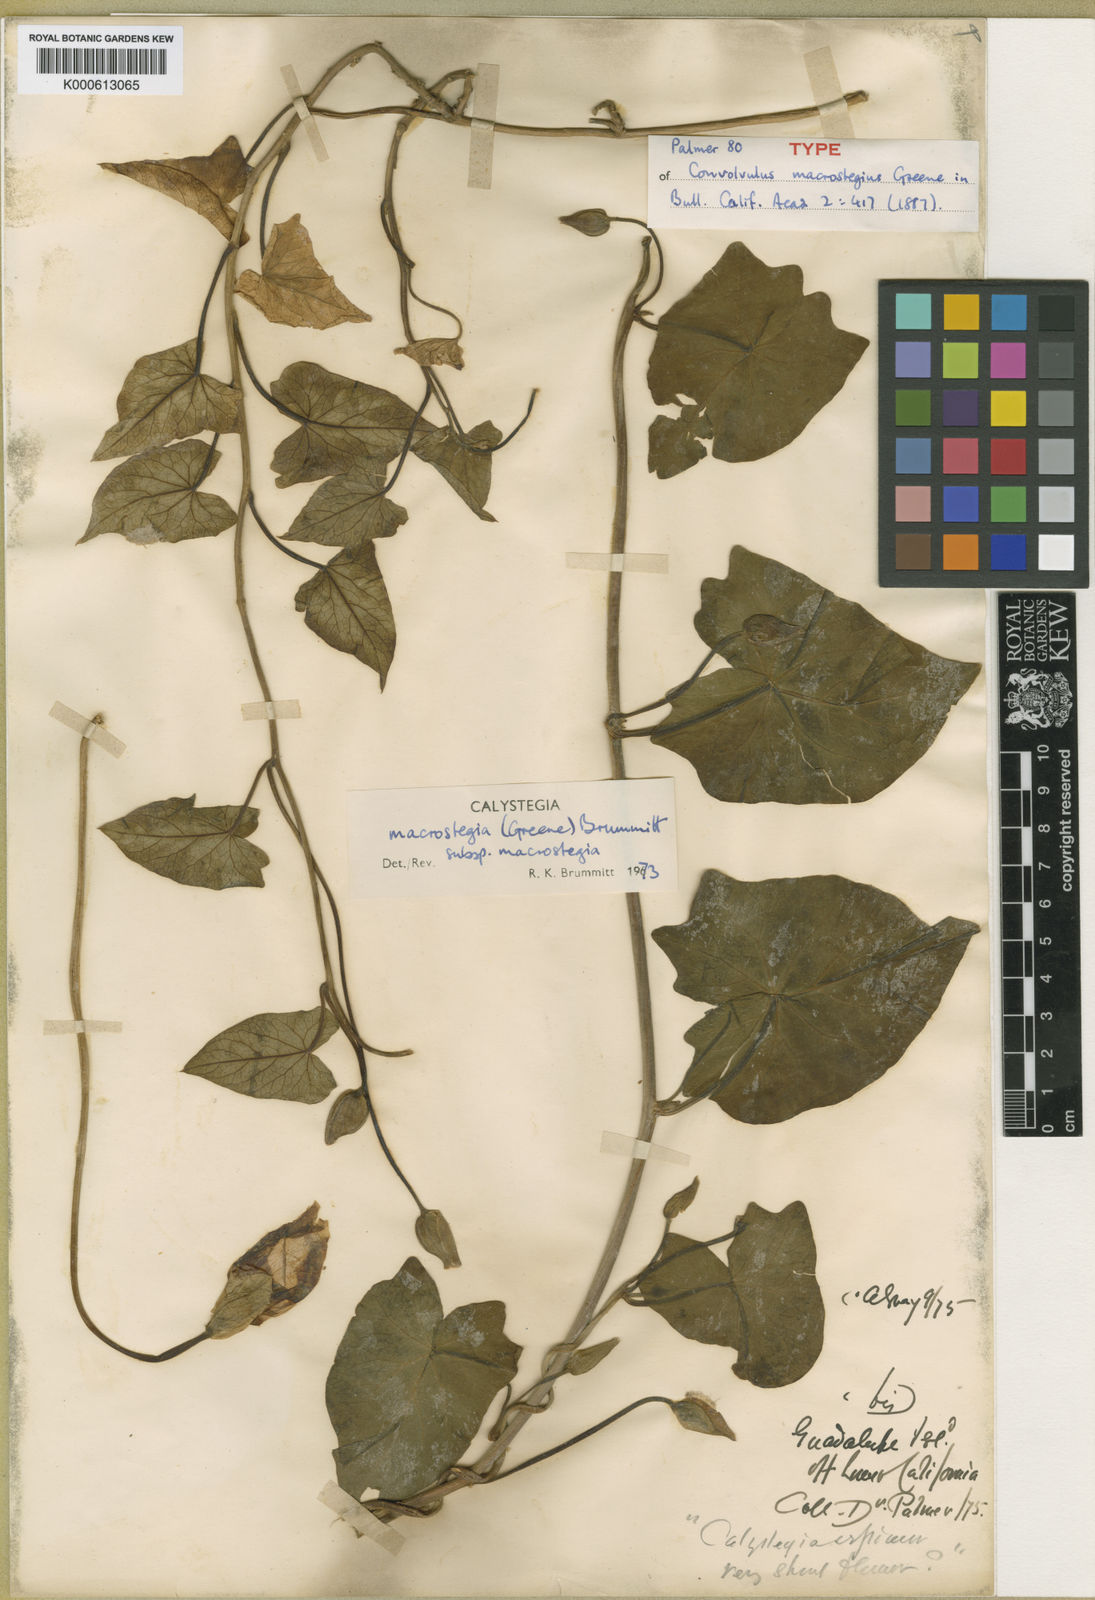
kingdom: Plantae
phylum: Tracheophyta
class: Magnoliopsida
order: Solanales
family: Convolvulaceae
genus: Calystegia
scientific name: Calystegia macrostegia
